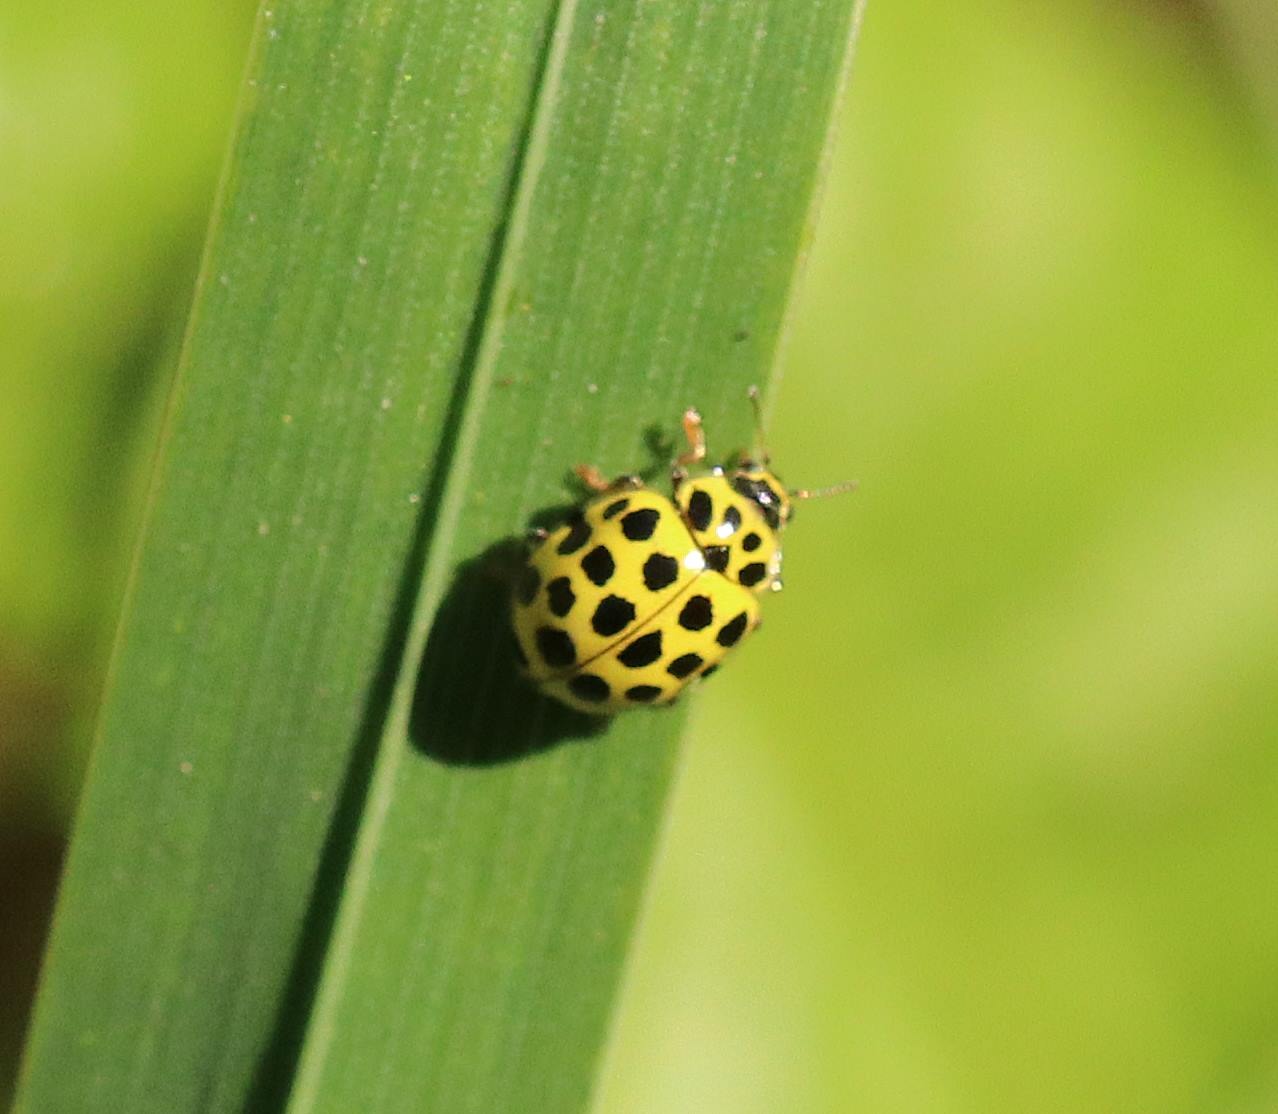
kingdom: Animalia
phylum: Arthropoda
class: Insecta
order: Coleoptera
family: Coccinellidae
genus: Psyllobora
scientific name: Psyllobora vigintiduopunctata
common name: Toogtyveplettet mariehøne
